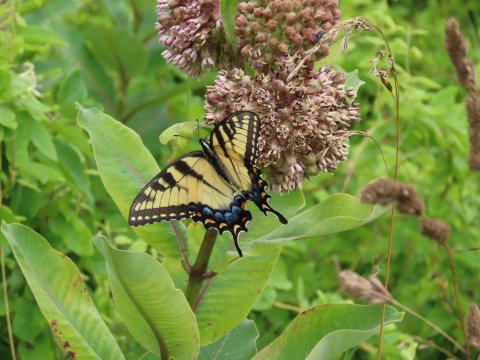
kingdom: Animalia
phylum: Arthropoda
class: Insecta
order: Lepidoptera
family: Papilionidae
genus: Pterourus
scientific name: Pterourus glaucus
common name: Eastern Tiger Swallowtail
